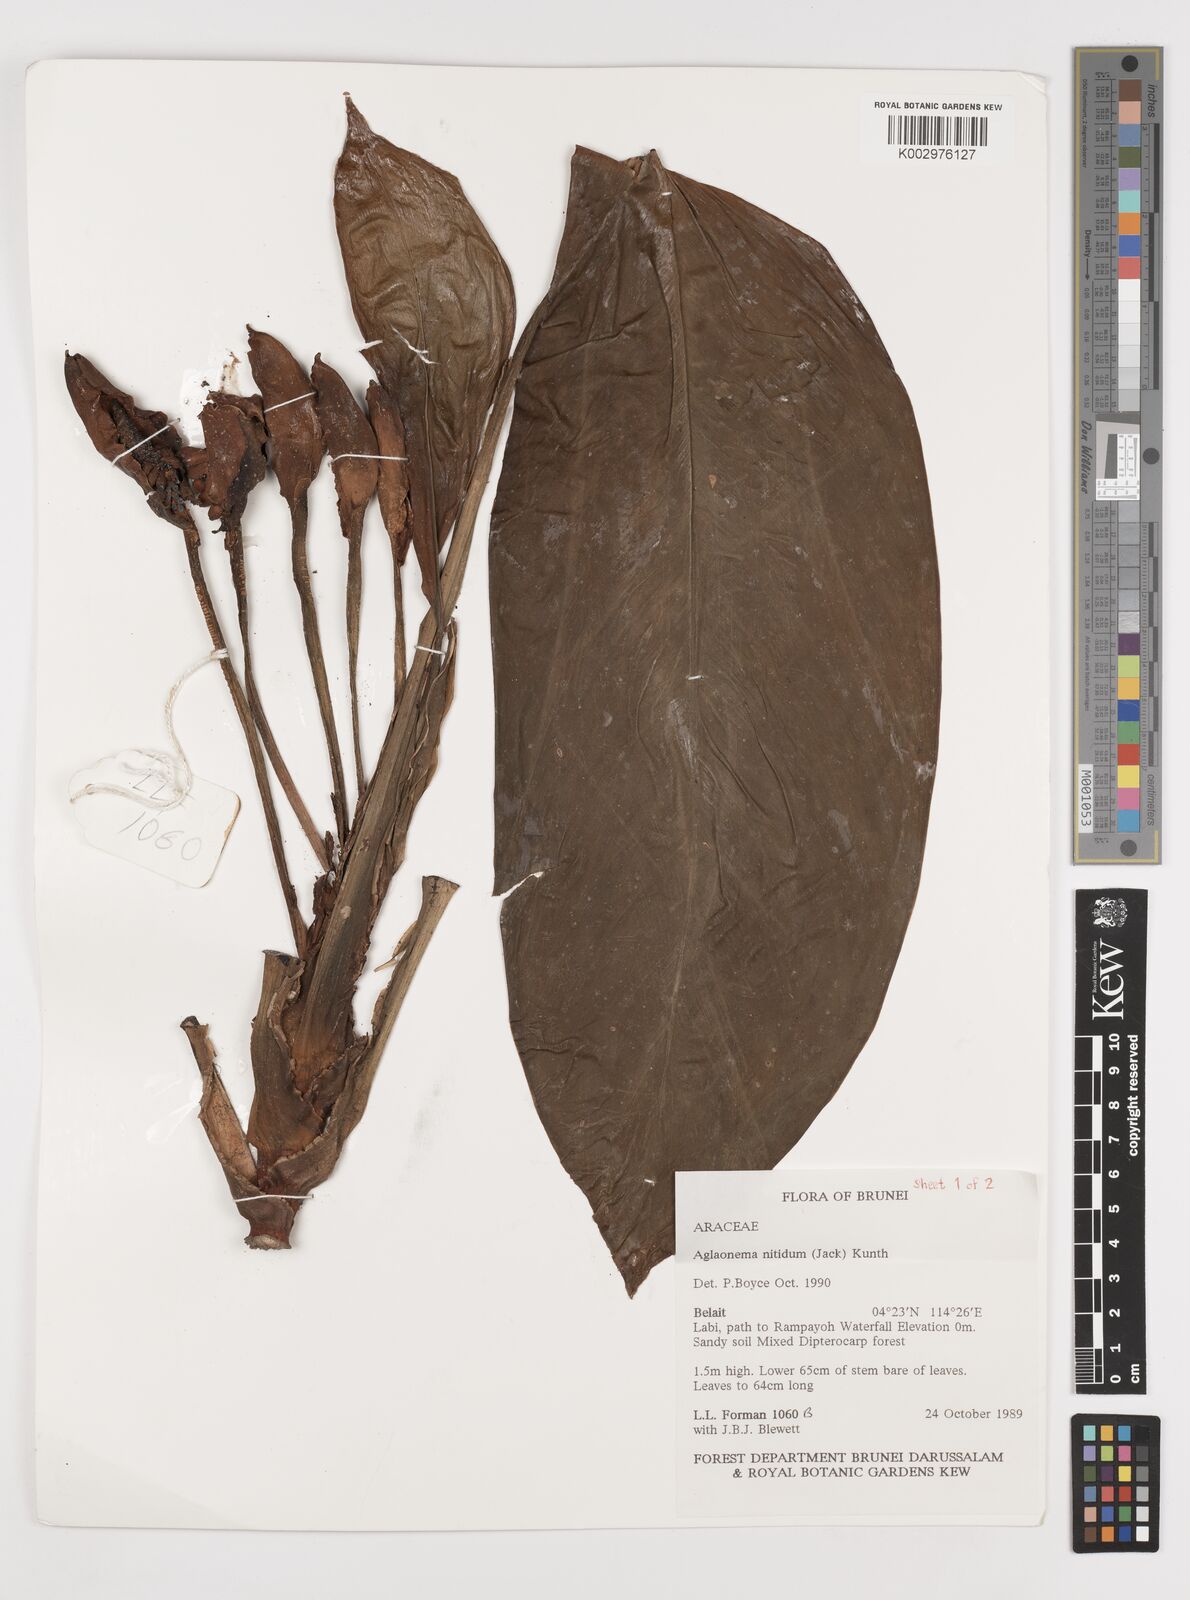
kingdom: Plantae
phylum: Tracheophyta
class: Liliopsida
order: Alismatales
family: Araceae
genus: Aglaonema
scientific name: Aglaonema nitidum
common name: Aglaonema aroid
